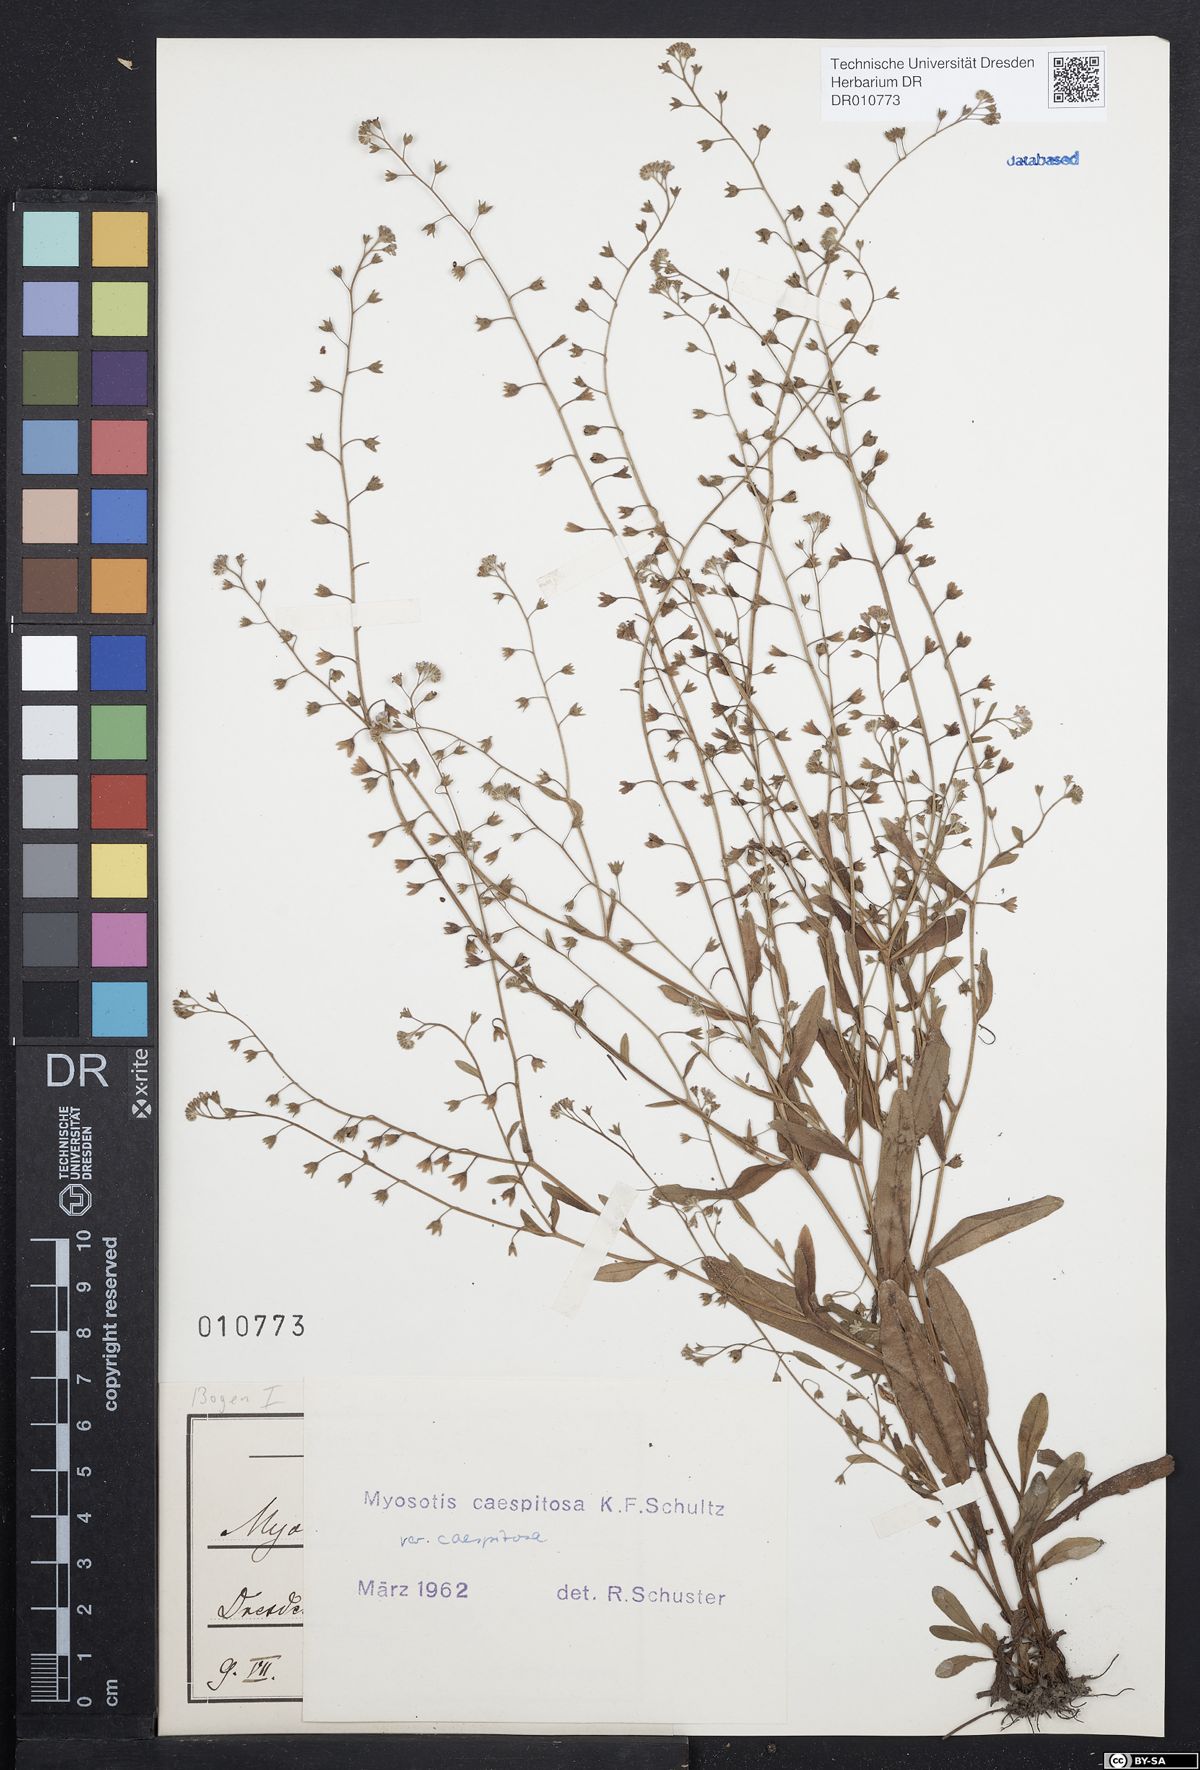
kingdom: Plantae
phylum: Tracheophyta
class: Magnoliopsida
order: Boraginales
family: Boraginaceae
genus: Myosotis
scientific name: Myosotis laxa
